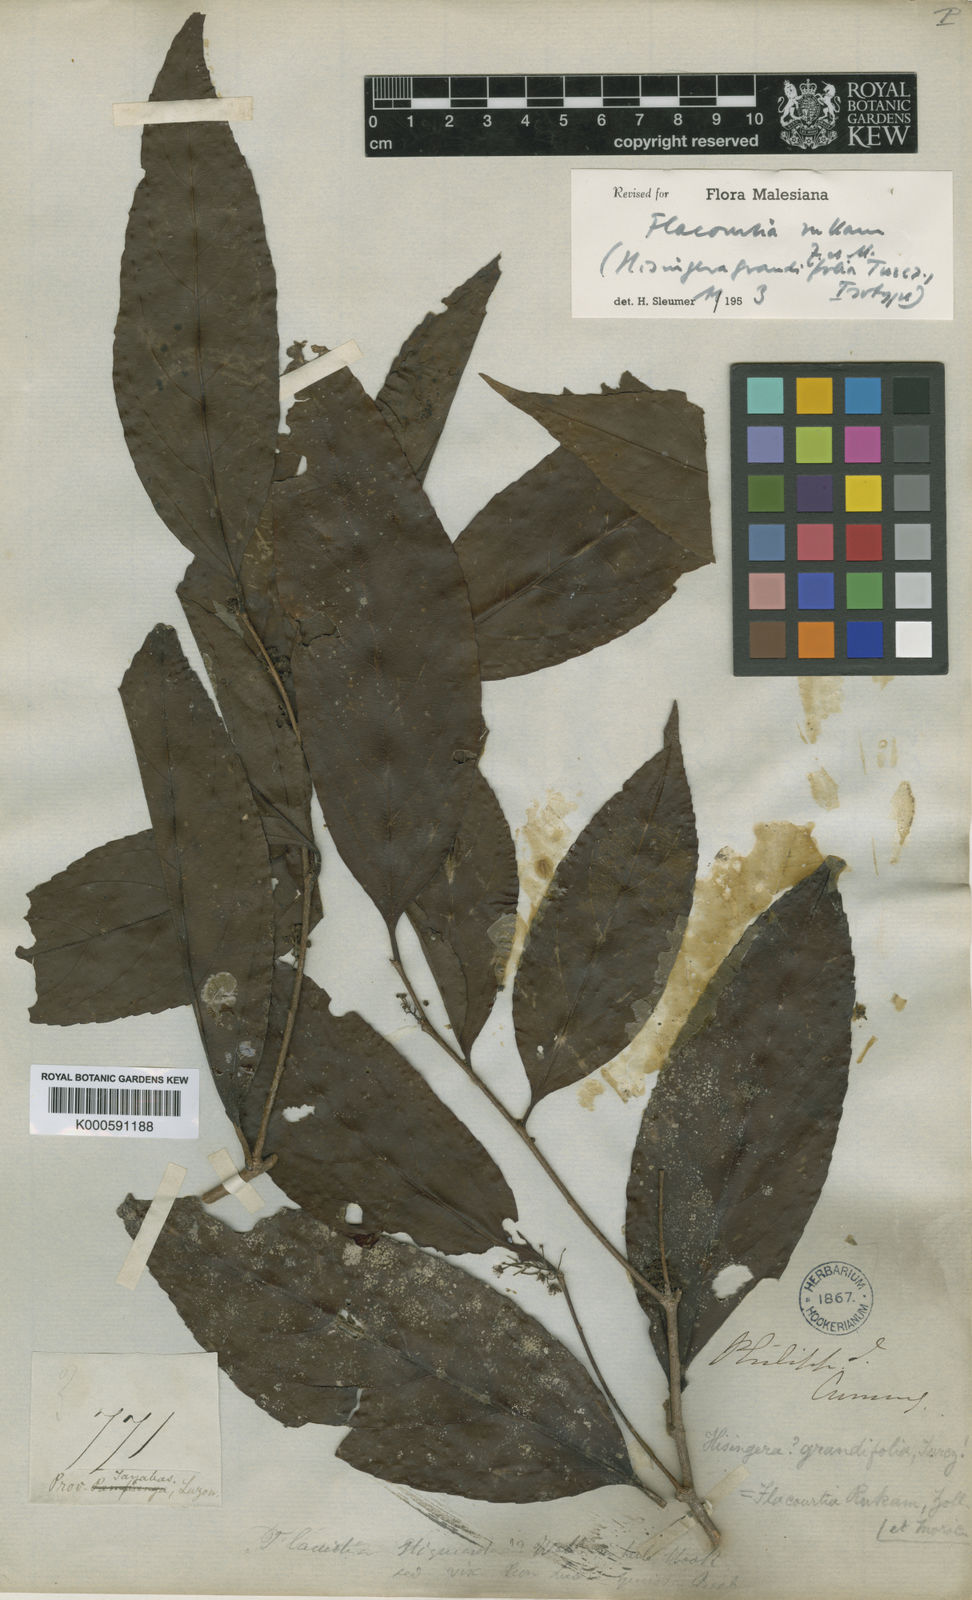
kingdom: Plantae
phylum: Tracheophyta
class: Magnoliopsida
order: Malpighiales
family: Salicaceae
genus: Flacourtia
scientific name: Flacourtia rukam
